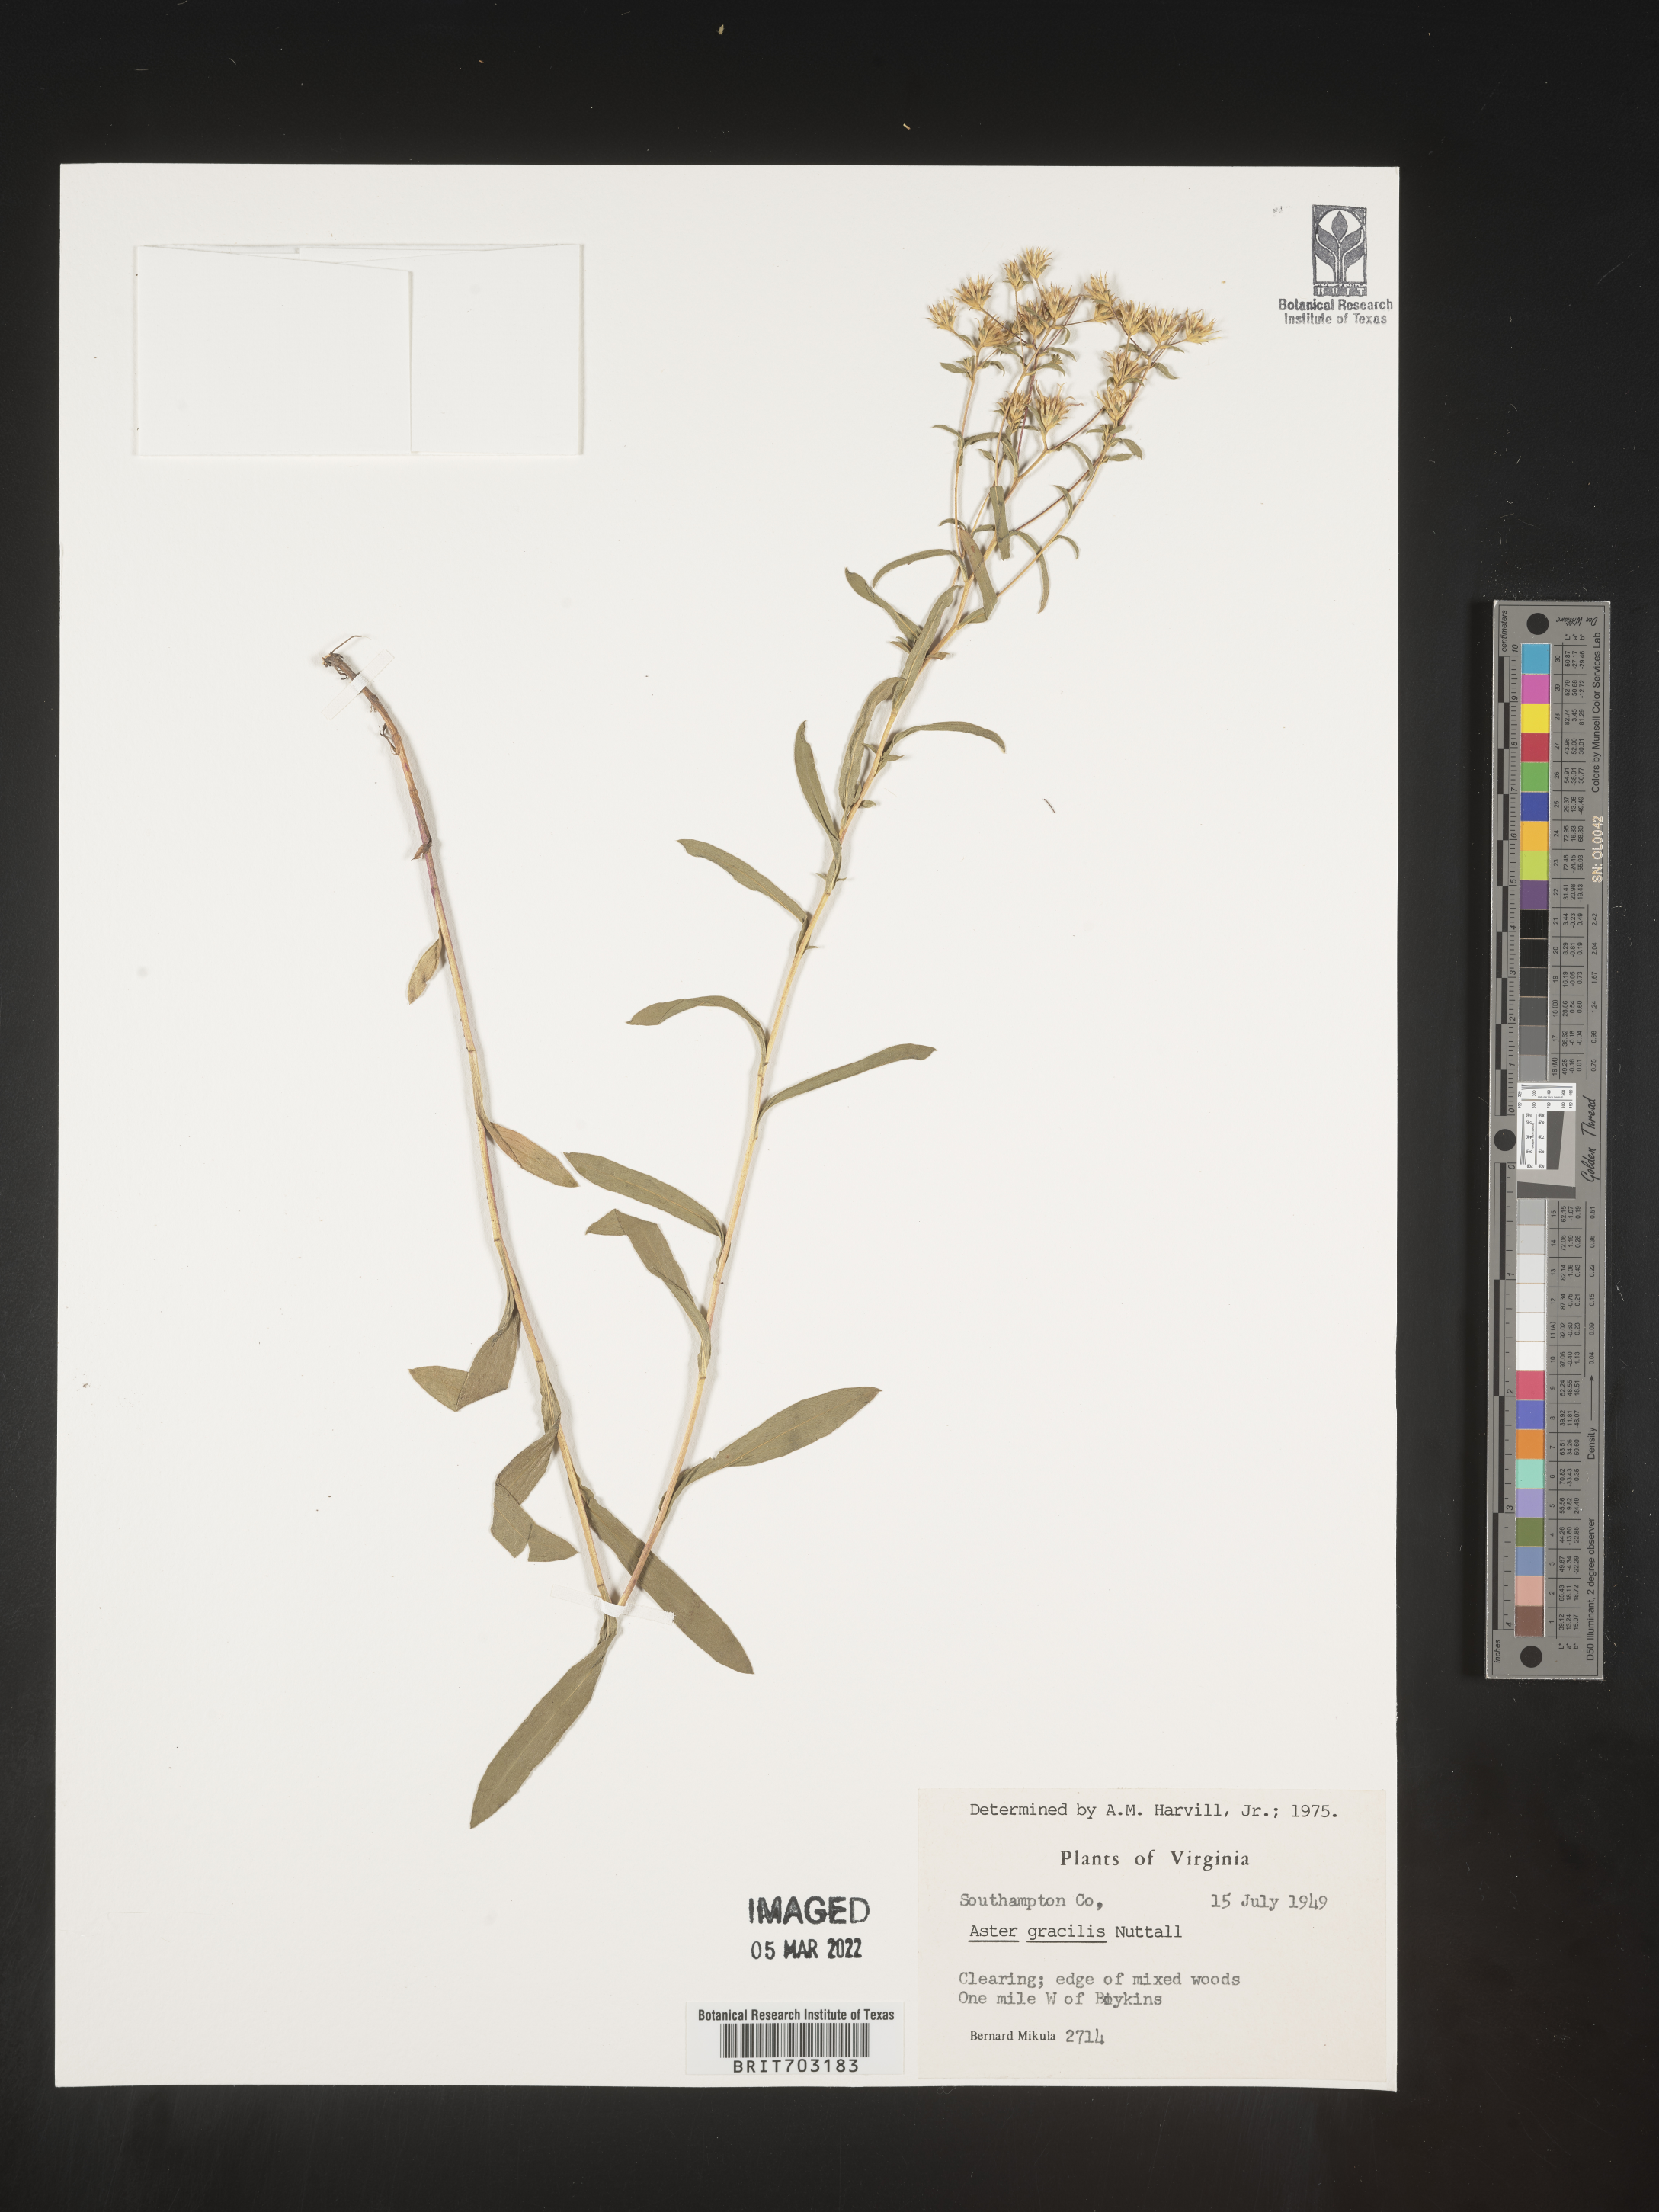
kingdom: Plantae
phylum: Tracheophyta
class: Magnoliopsida
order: Asterales
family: Asteraceae
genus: Eurybia
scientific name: Eurybia compacta
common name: Slender aster
